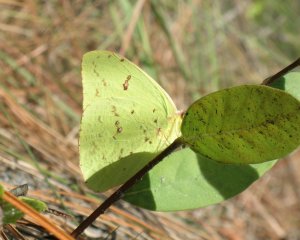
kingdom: Animalia
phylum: Arthropoda
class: Insecta
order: Lepidoptera
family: Pieridae
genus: Phoebis
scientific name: Phoebis sennae
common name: Cloudless Sulphur
